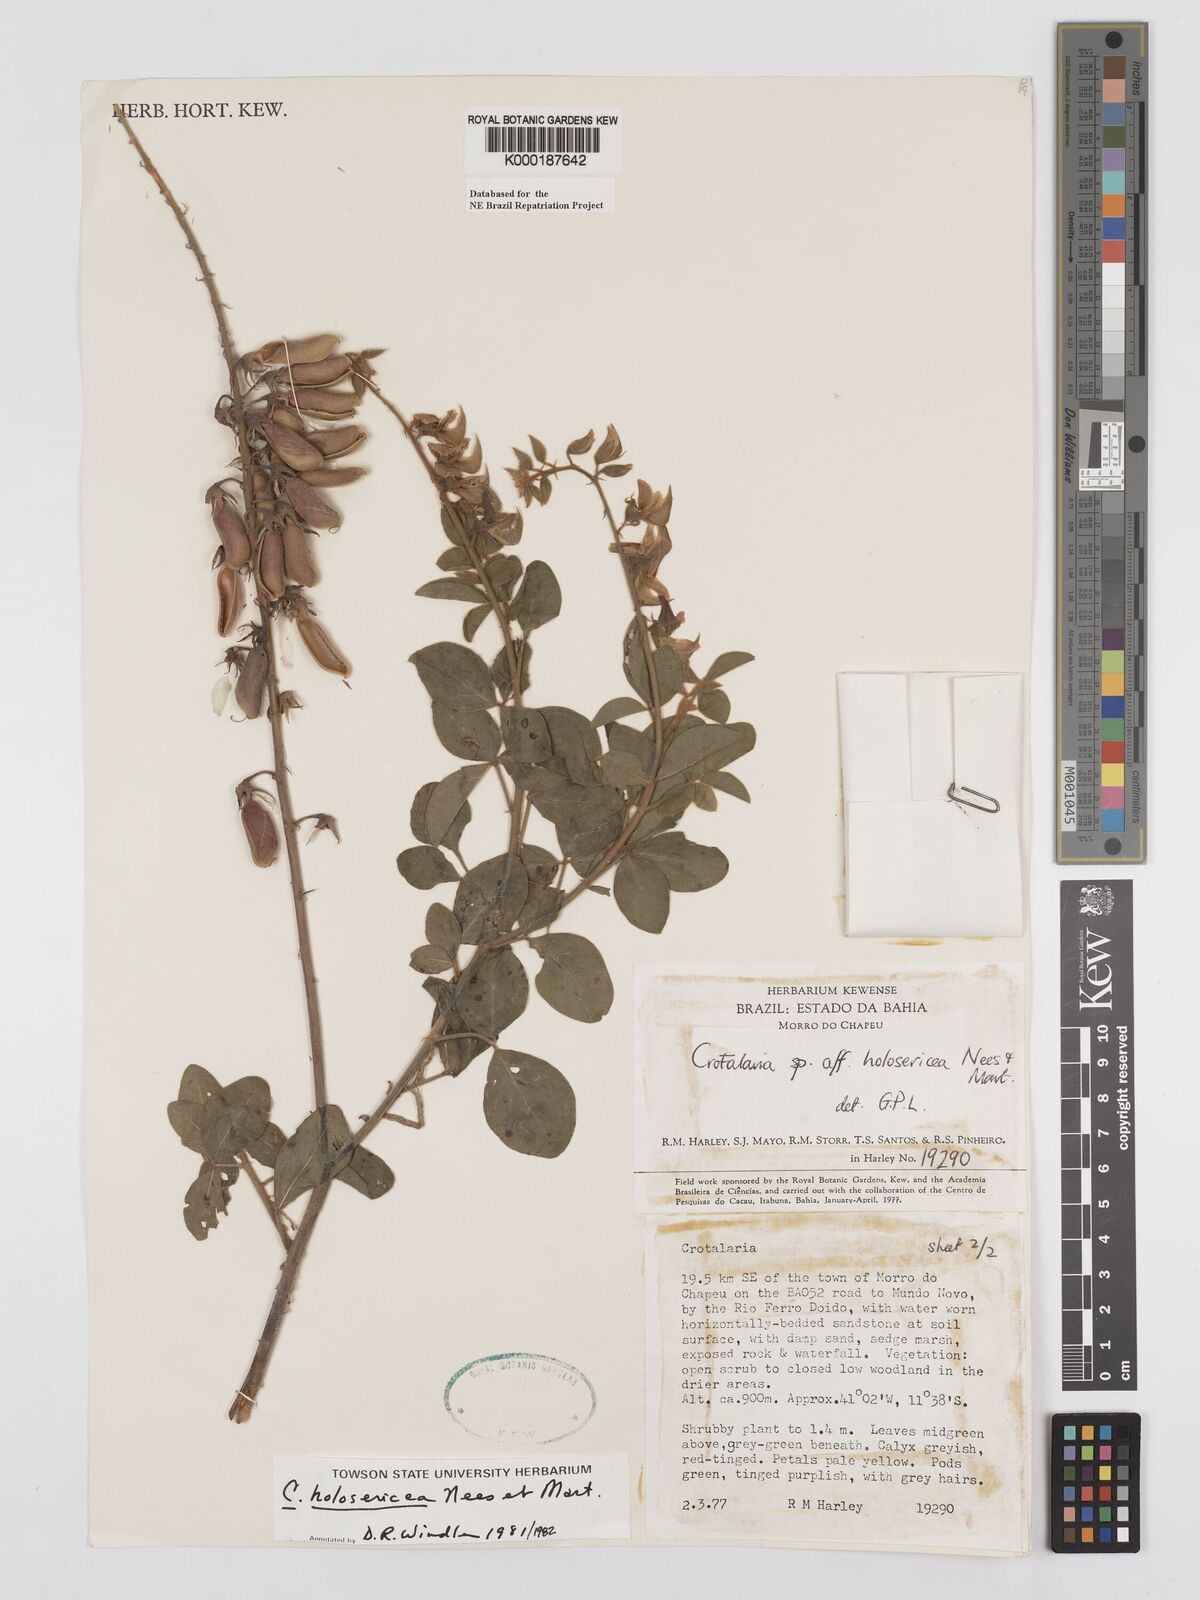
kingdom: Plantae
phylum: Tracheophyta
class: Magnoliopsida
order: Fabales
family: Fabaceae
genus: Crotalaria
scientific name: Crotalaria holosericea
